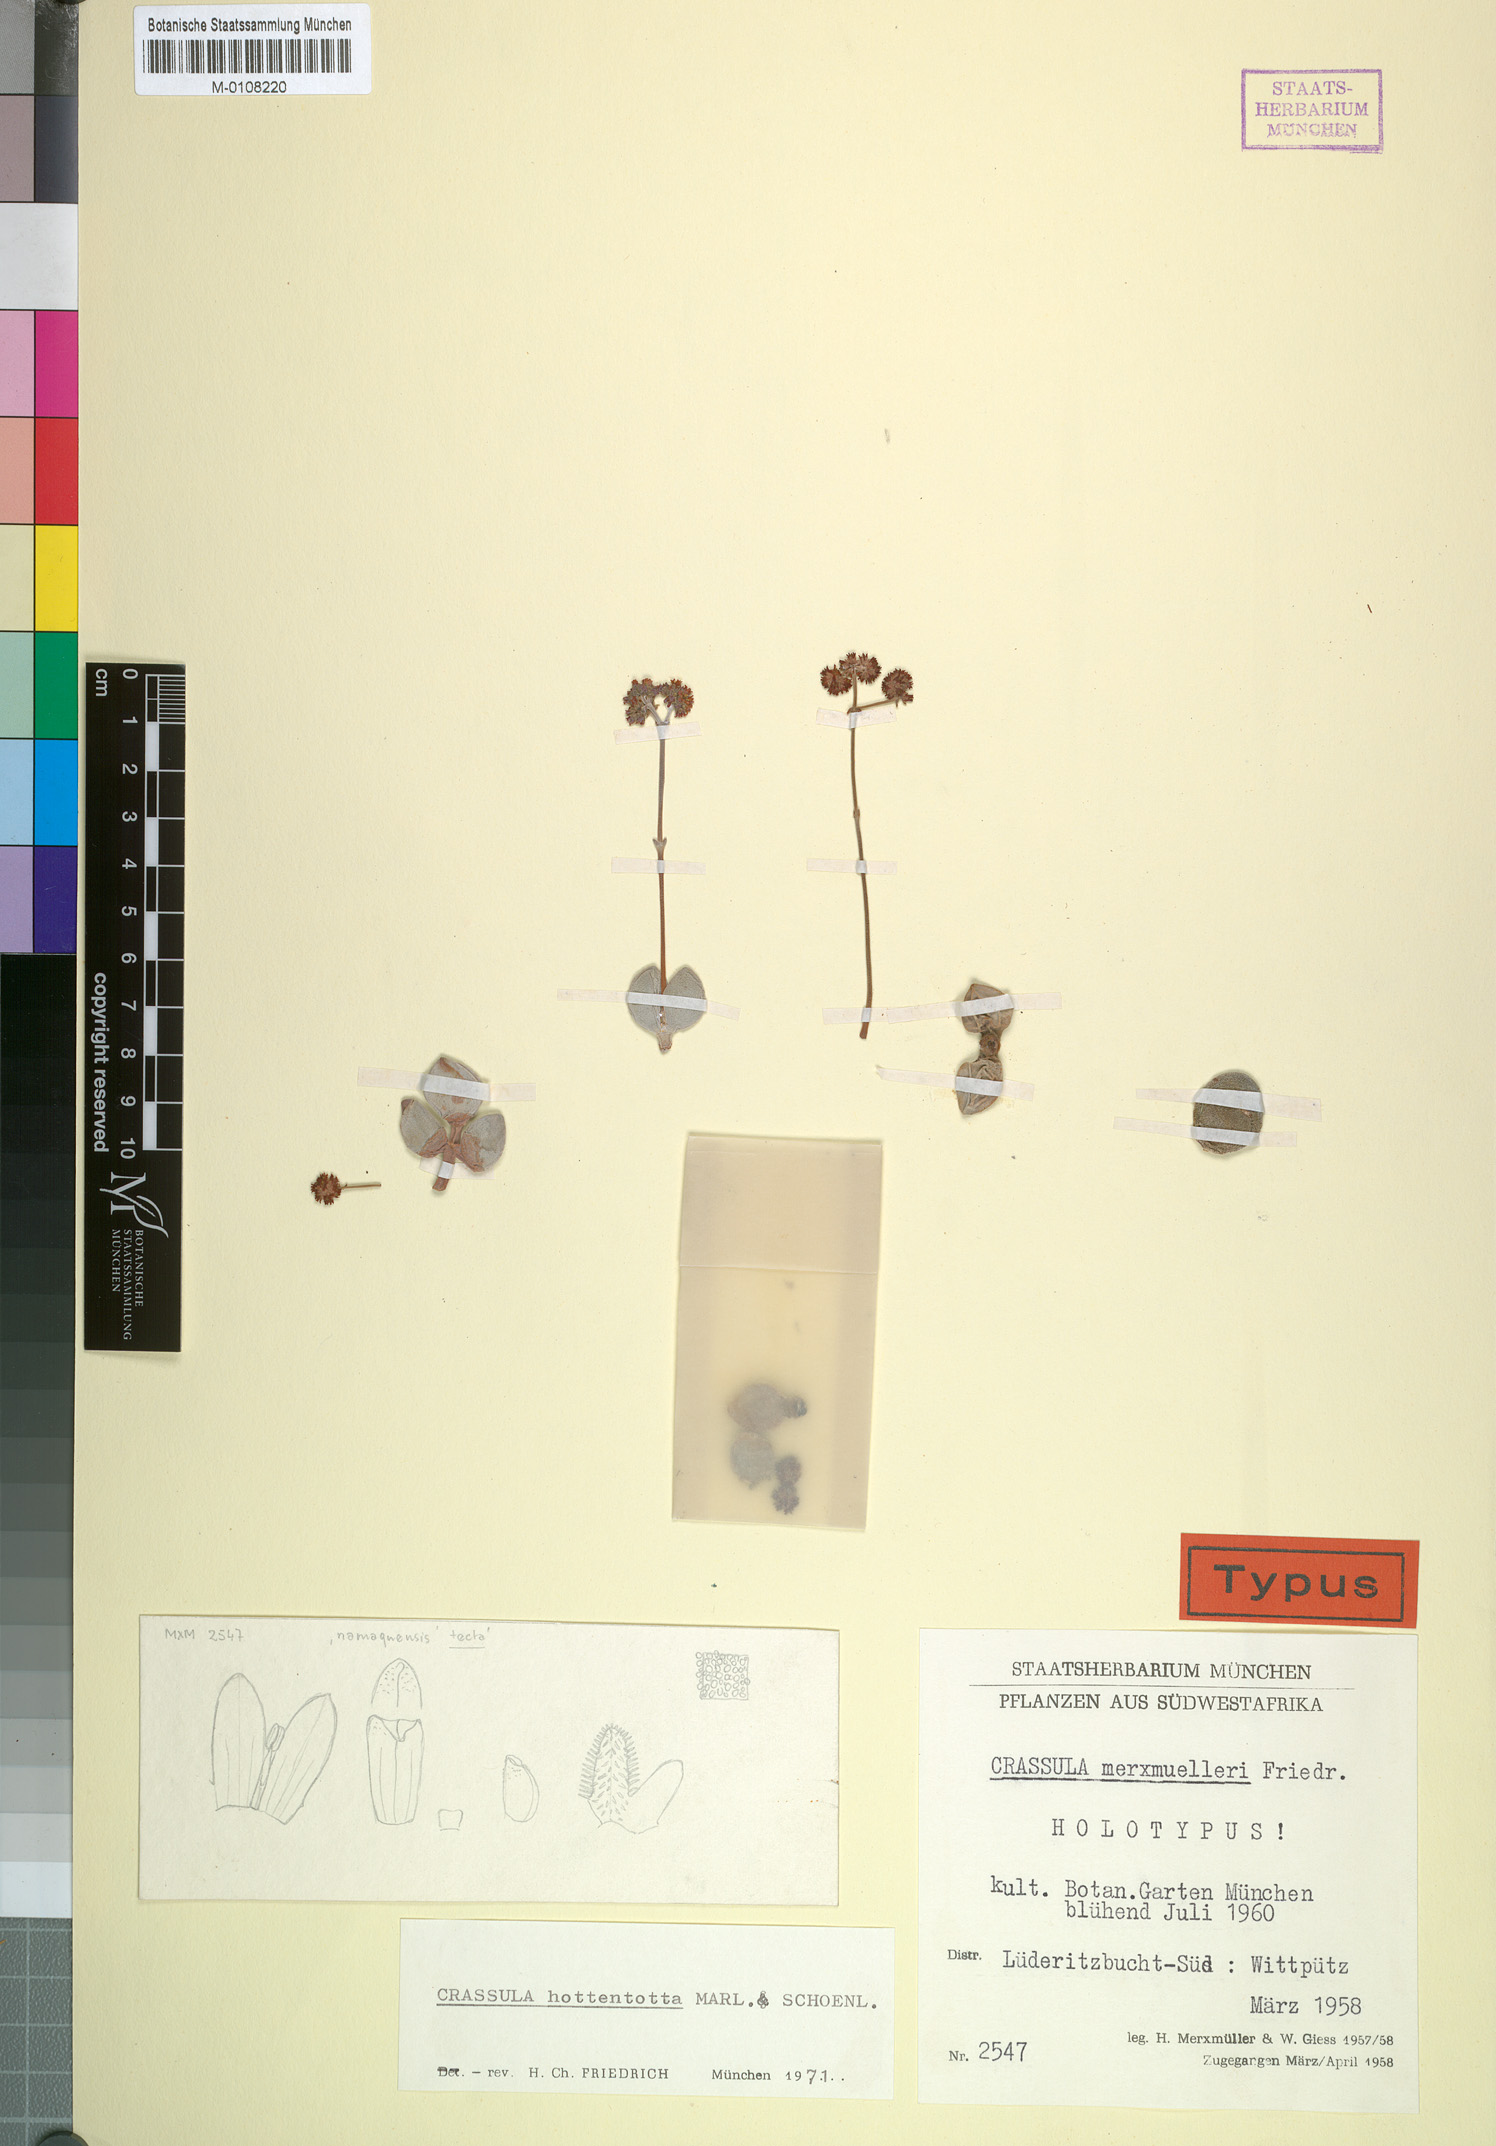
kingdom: Plantae
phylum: Tracheophyta
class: Magnoliopsida
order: Saxifragales
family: Crassulaceae
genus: Crassula
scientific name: Crassula sericea
